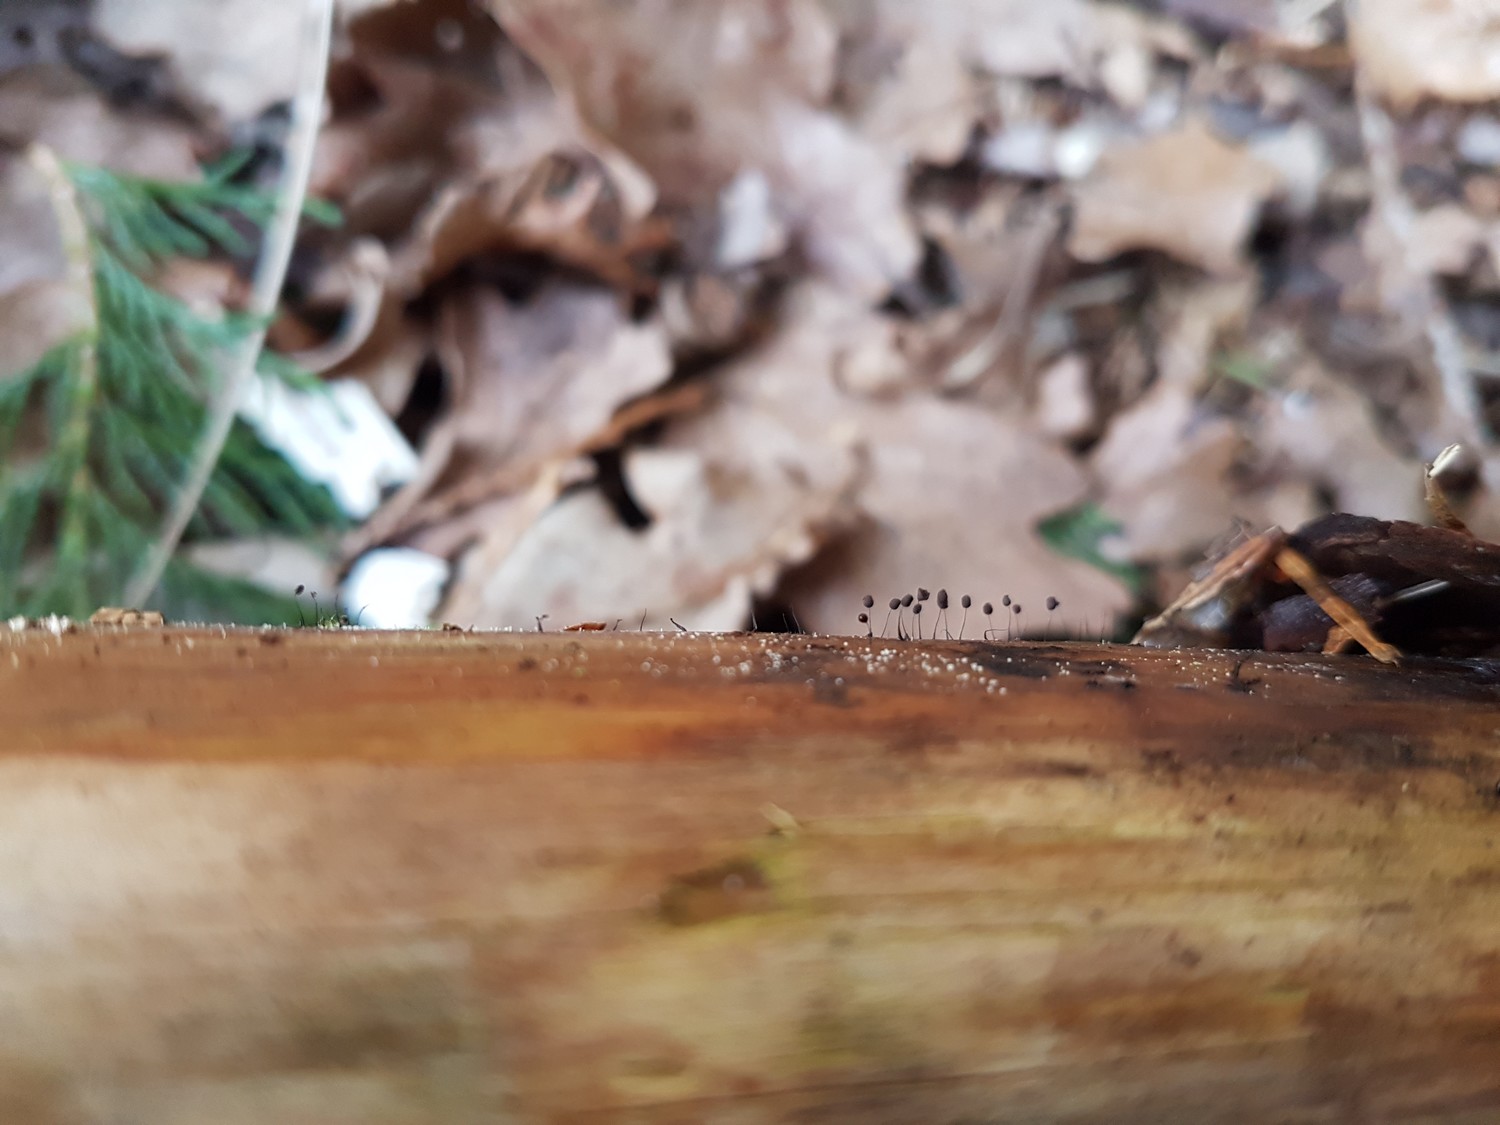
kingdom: Protozoa
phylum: Mycetozoa
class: Myxomycetes
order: Stemonitidales
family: Stemonitidaceae
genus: Comatricha
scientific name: Comatricha nigra
